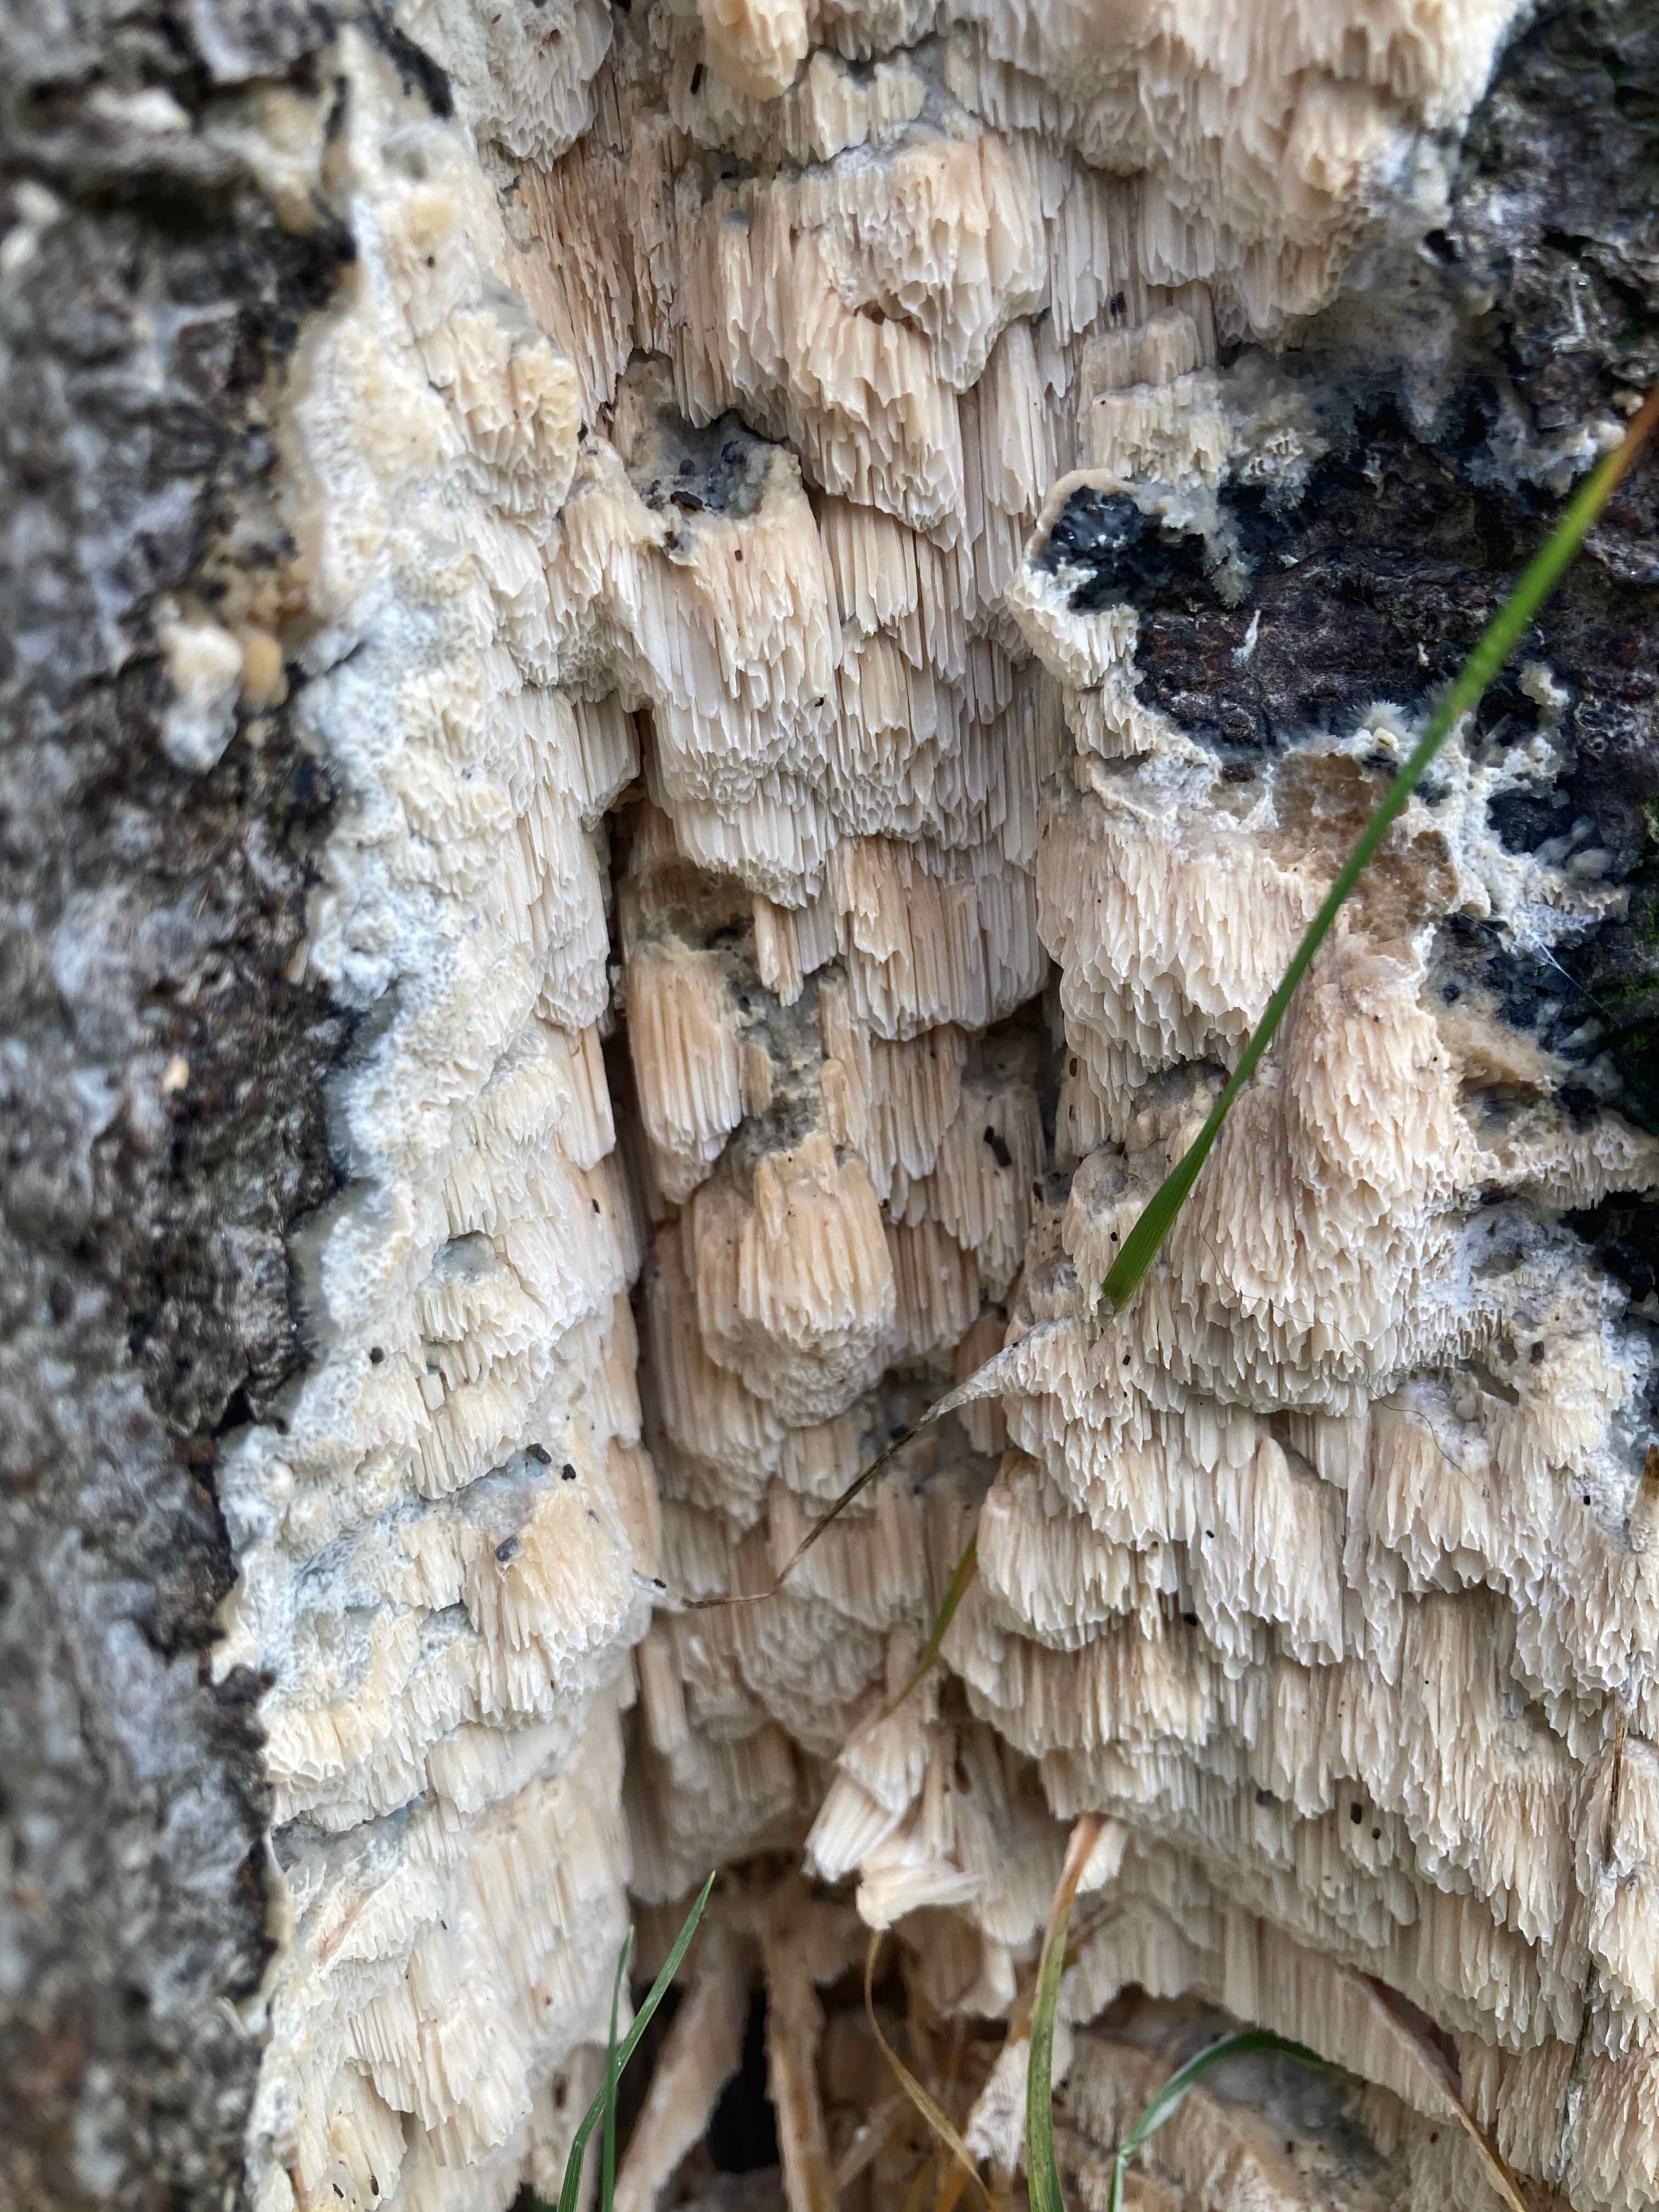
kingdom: Fungi
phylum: Basidiomycota
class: Agaricomycetes
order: Polyporales
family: Irpicaceae
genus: Irpex
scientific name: Irpex latemarginatus
